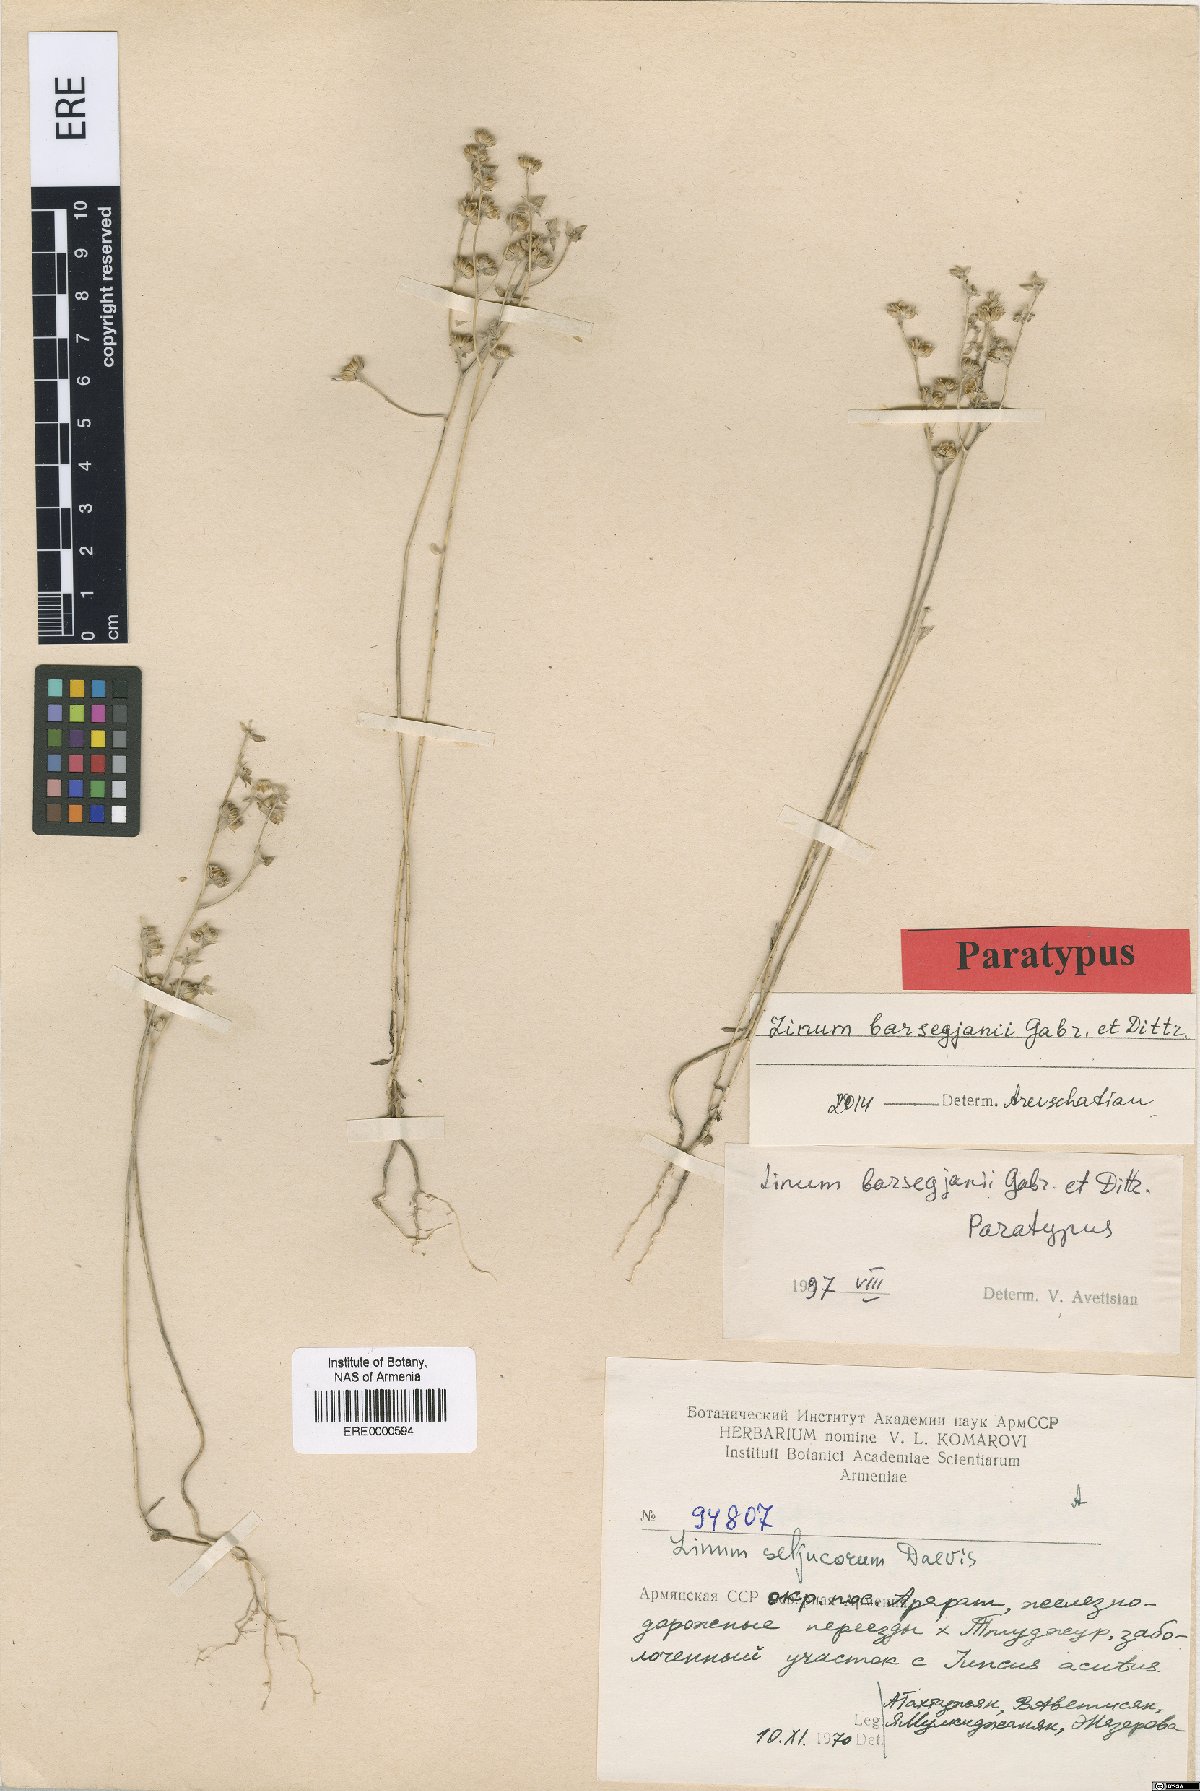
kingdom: Plantae
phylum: Tracheophyta
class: Magnoliopsida
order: Malpighiales
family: Linaceae
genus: Linum
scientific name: Linum seljukorum
